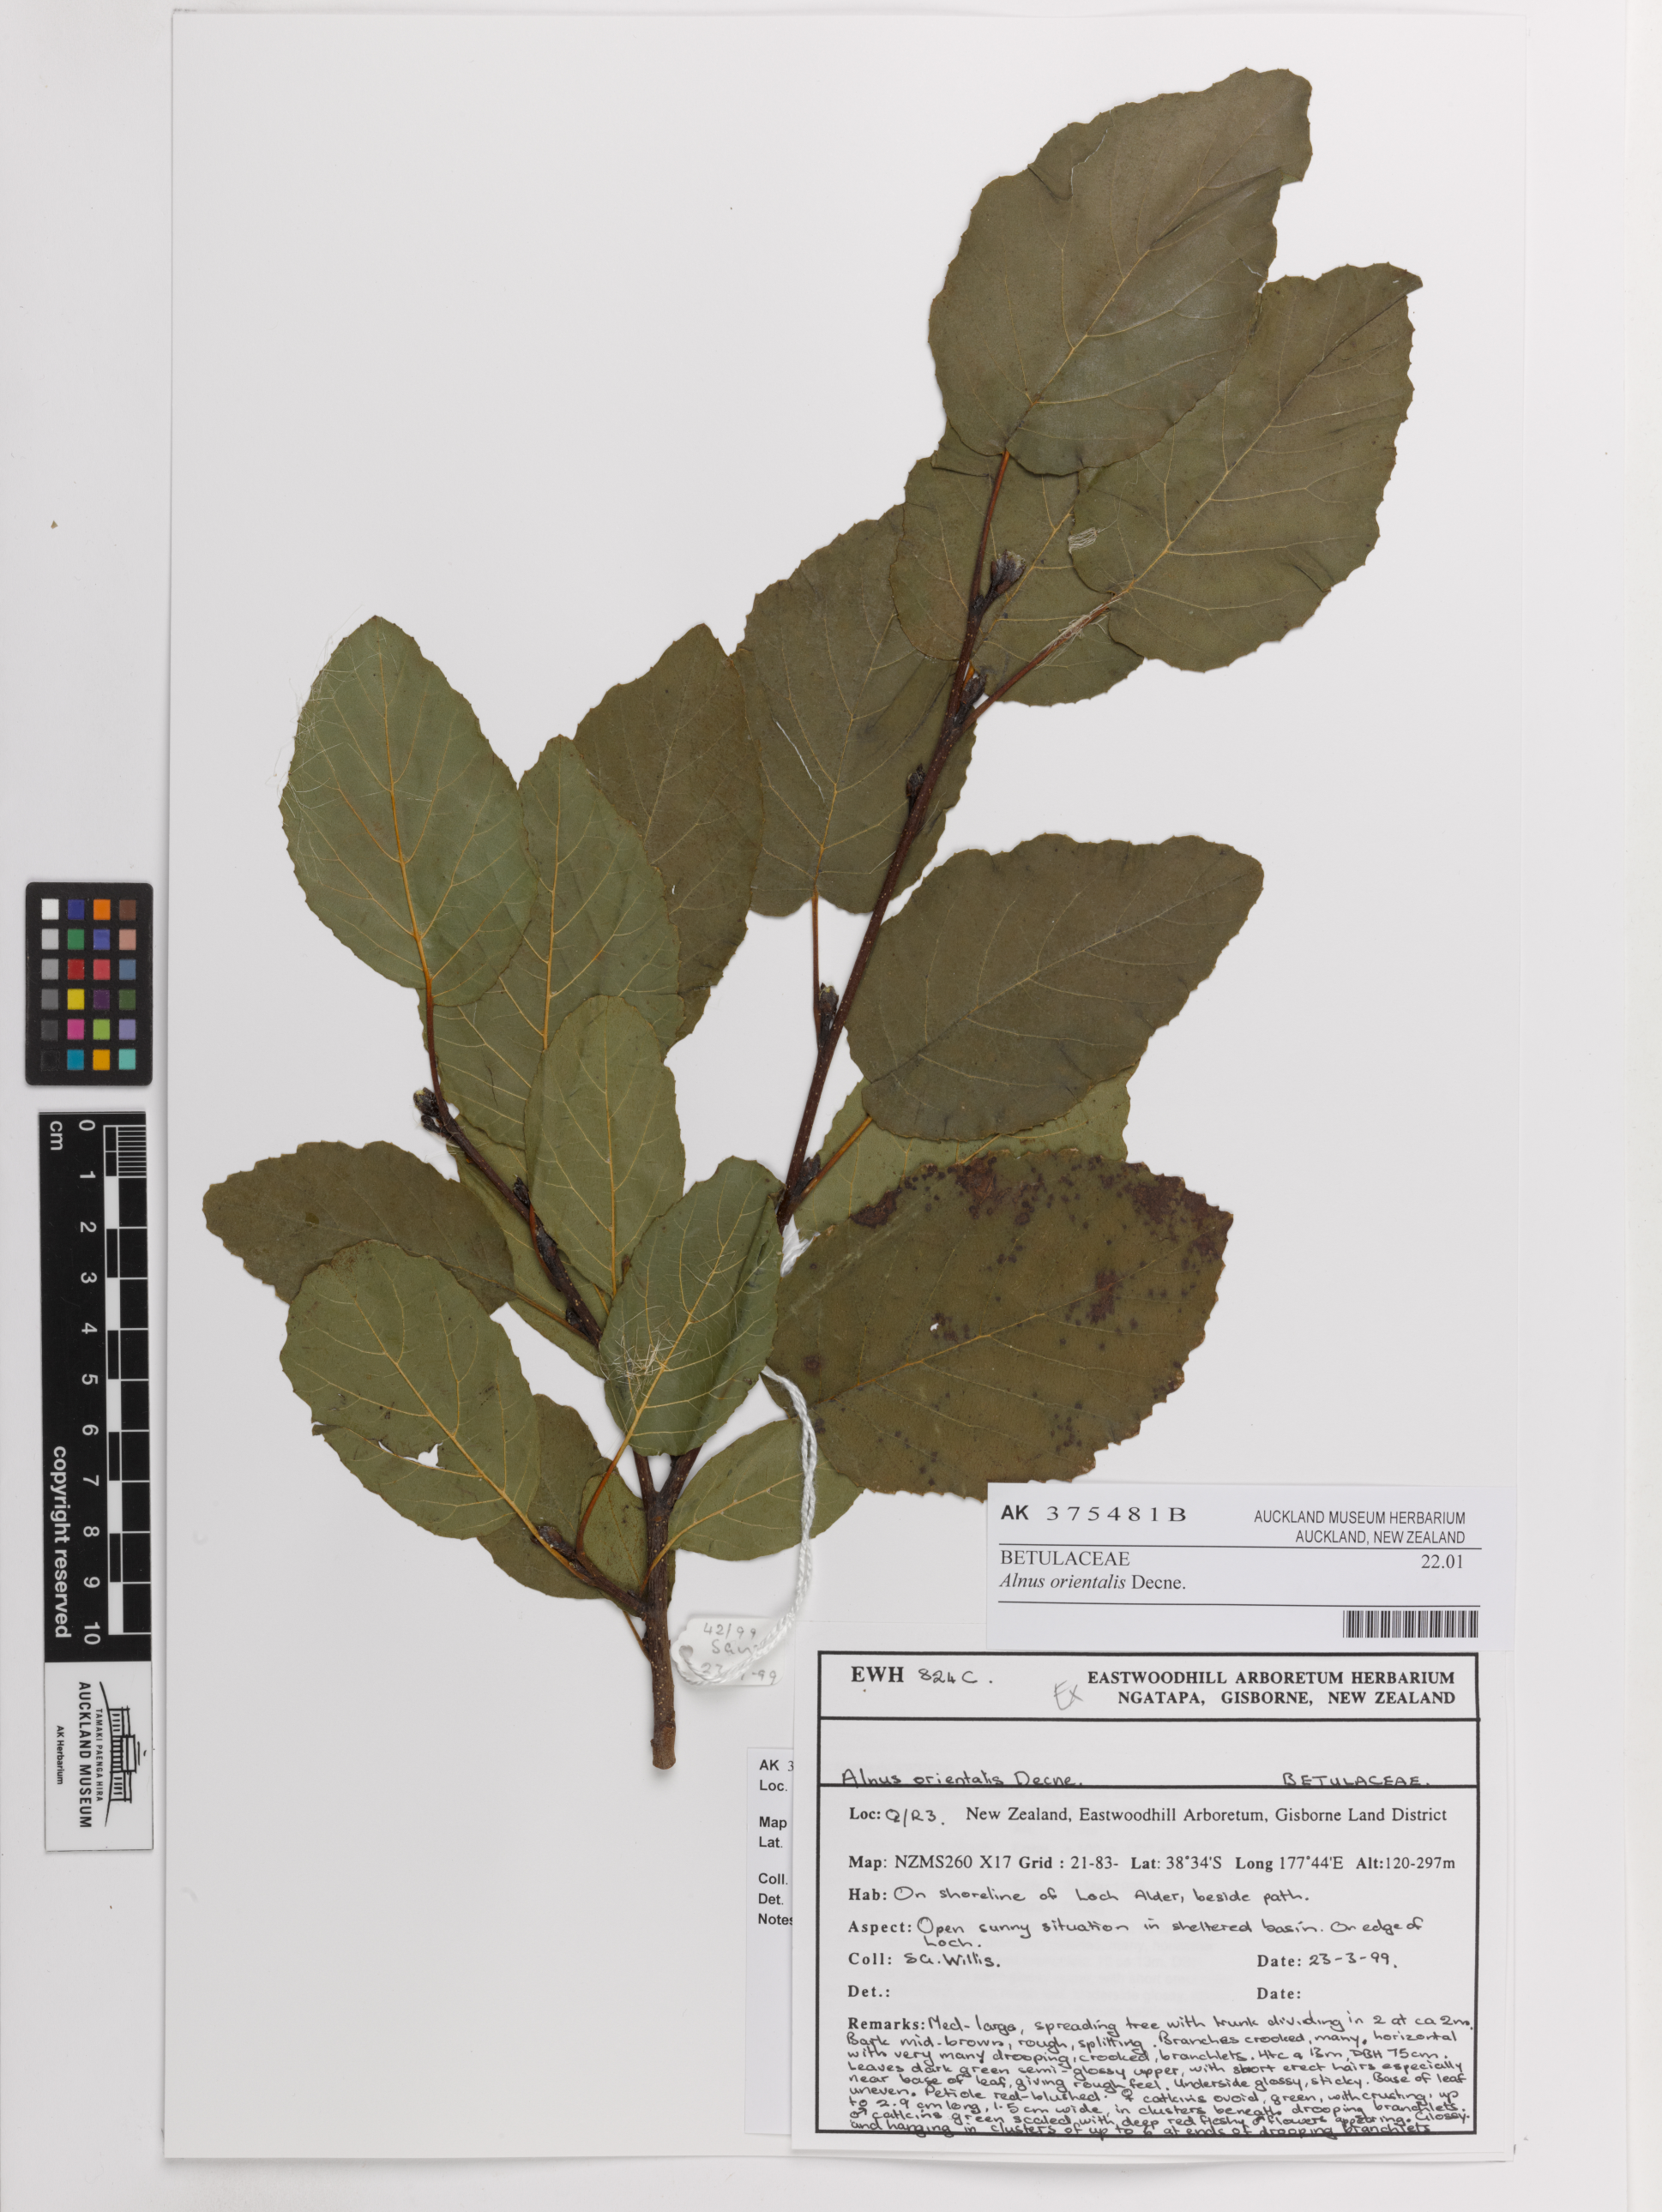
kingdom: Plantae
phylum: Tracheophyta
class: Magnoliopsida
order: Fagales
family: Betulaceae
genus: Alnus
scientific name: Alnus orientalis
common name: Oriental alder
